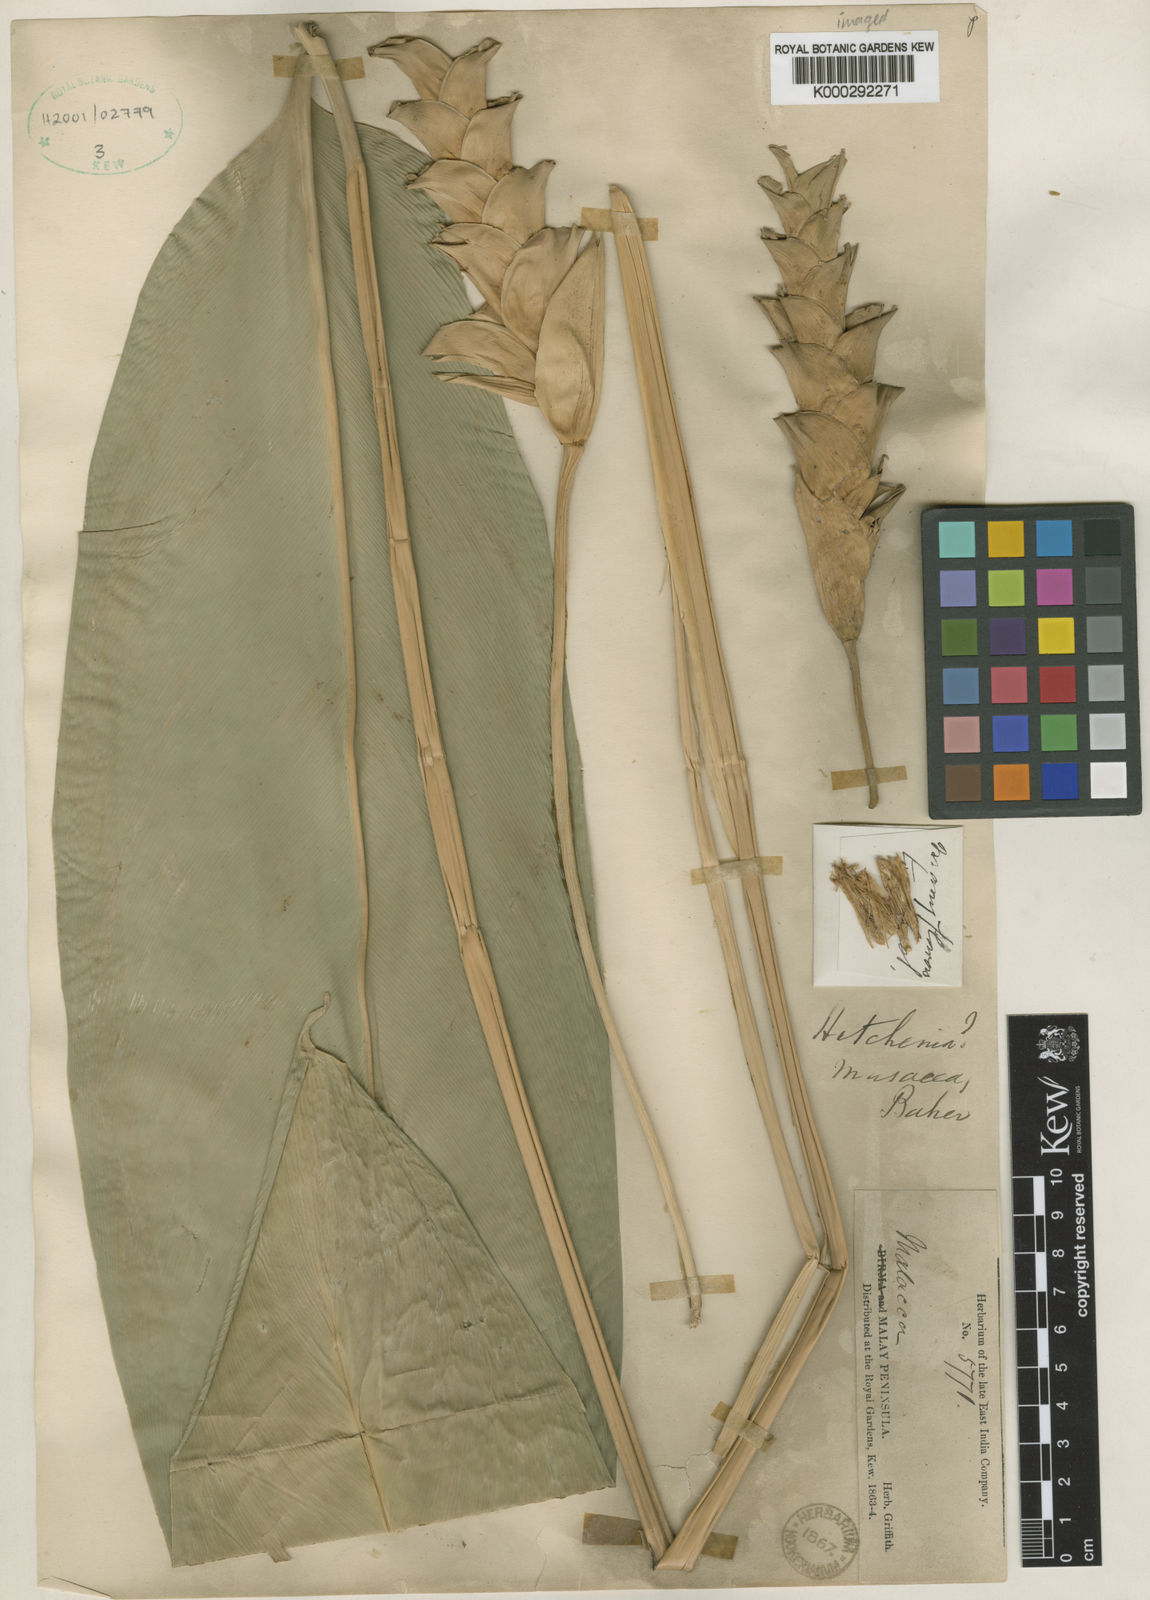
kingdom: Plantae
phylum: Tracheophyta
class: Liliopsida
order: Zingiberales
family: Marantaceae
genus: Stachyphrynium
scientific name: Stachyphrynium latifolium
